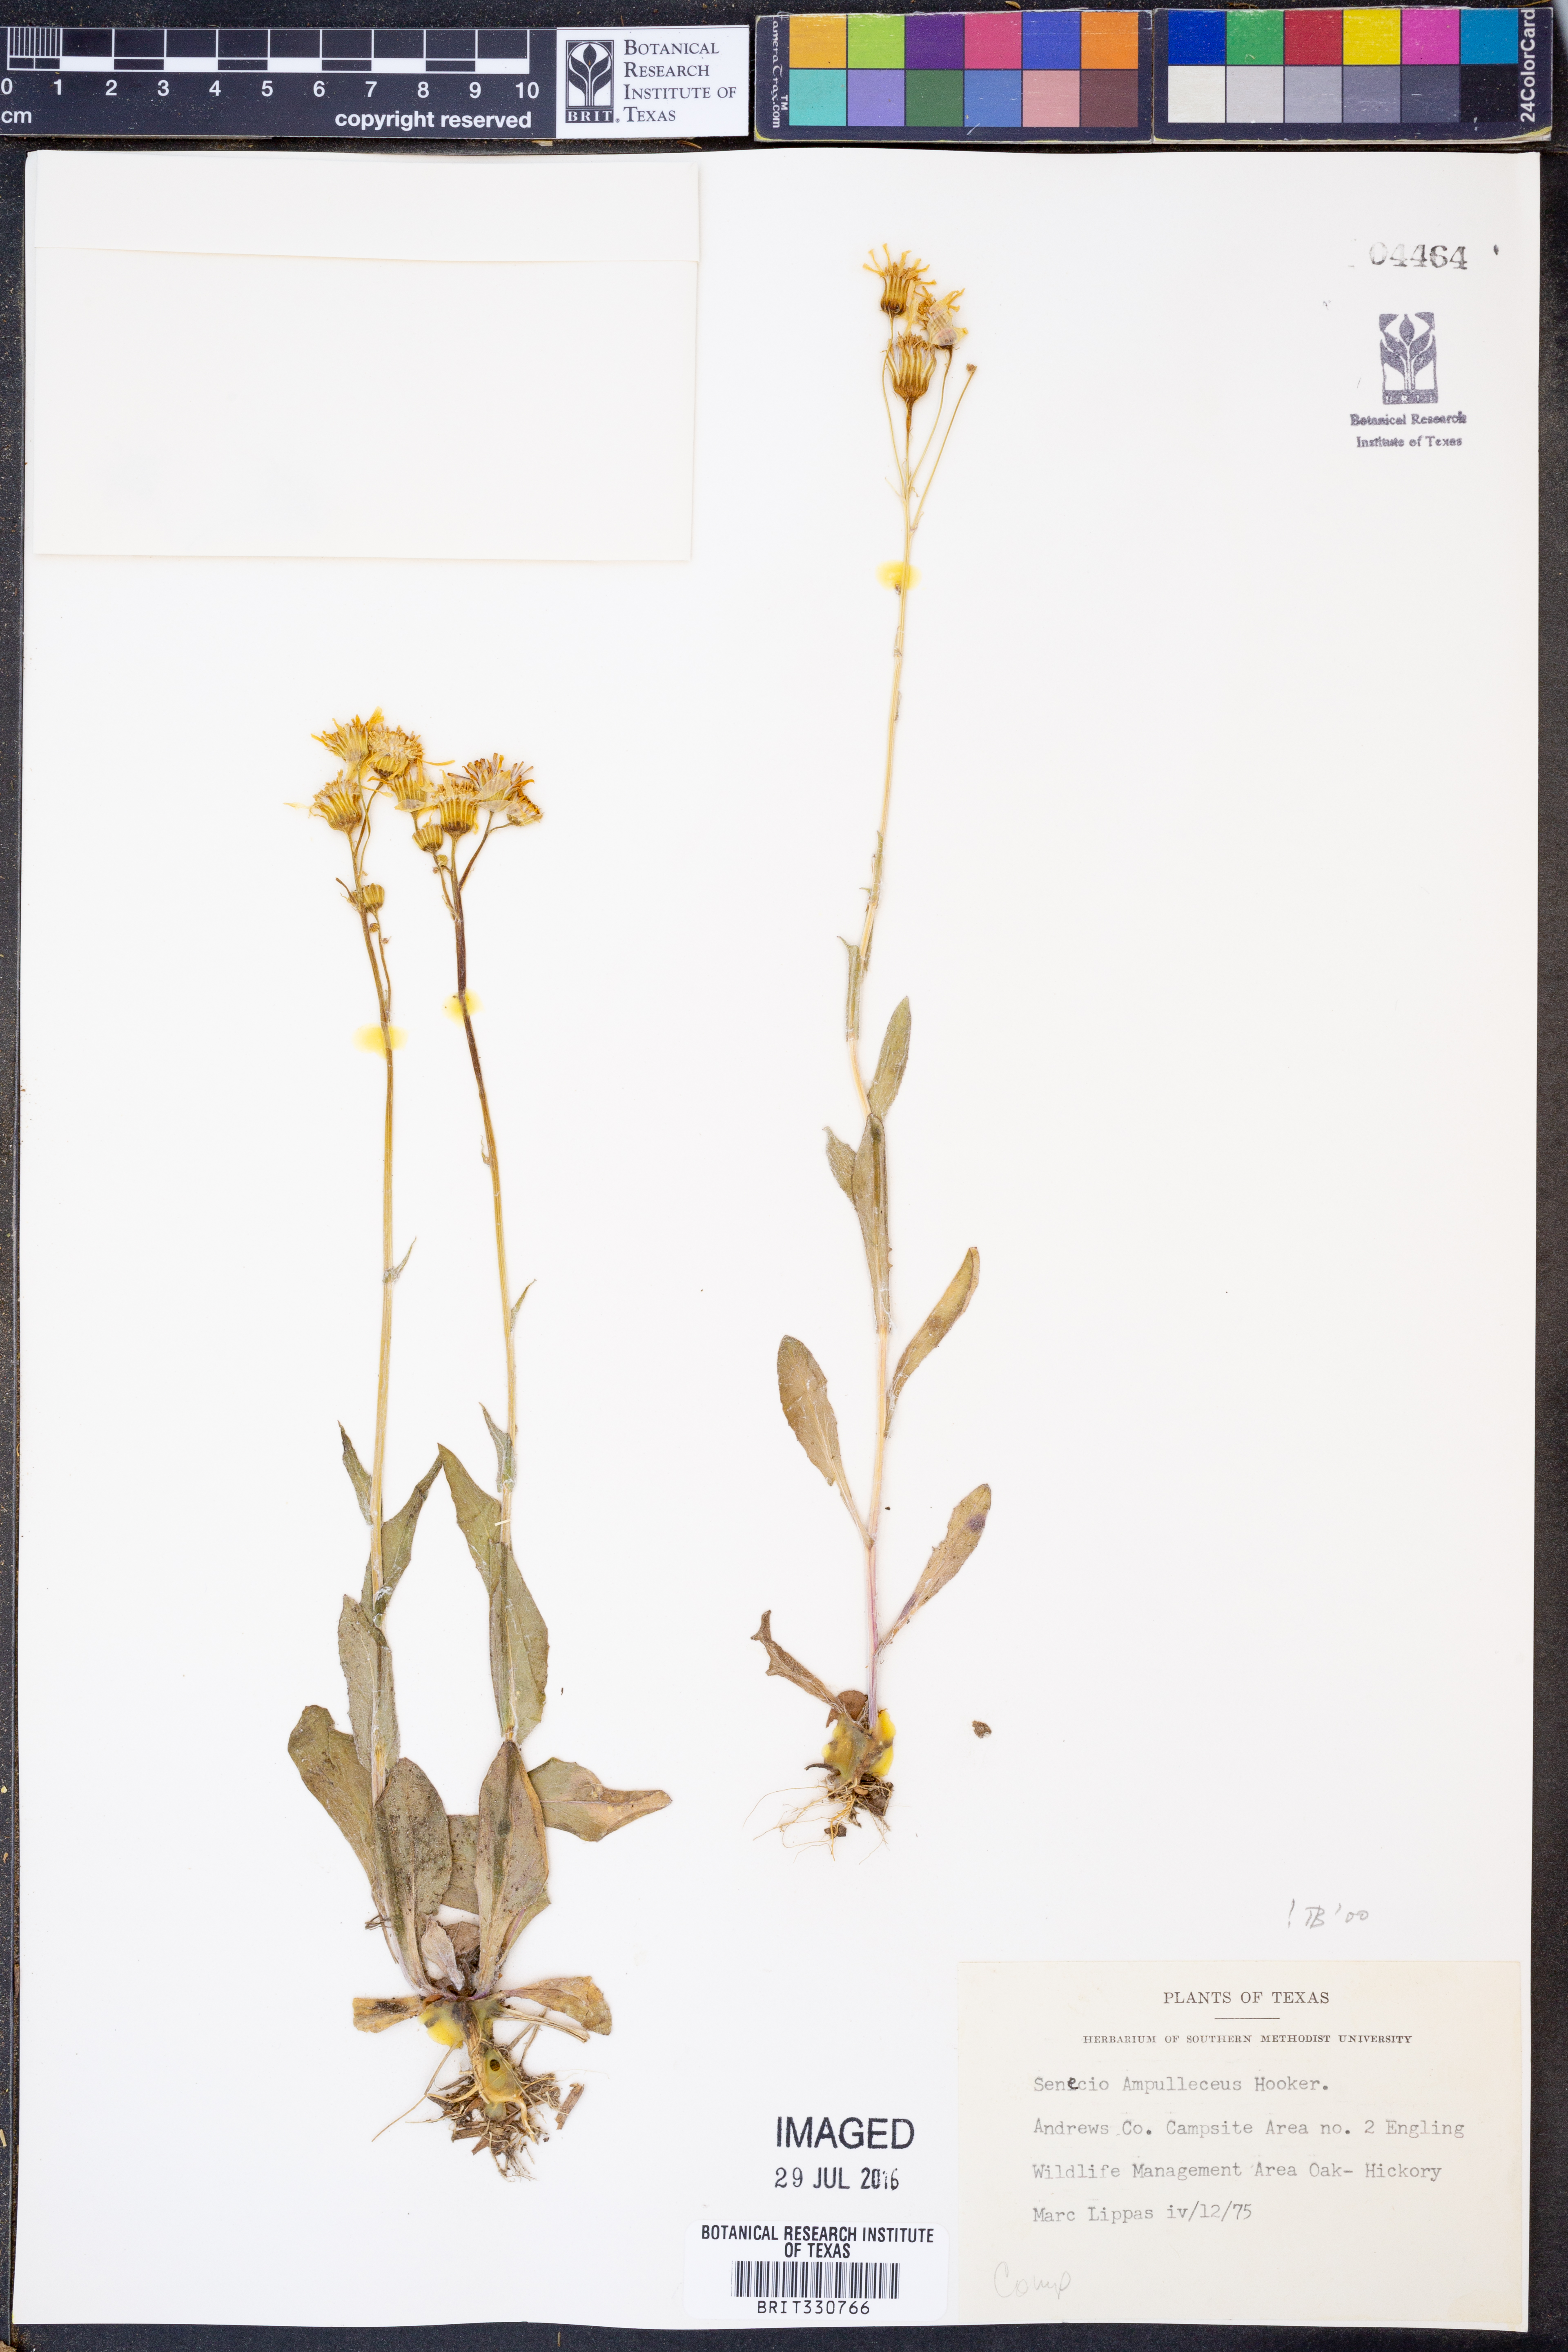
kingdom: Plantae
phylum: Tracheophyta
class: Magnoliopsida
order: Asterales
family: Asteraceae
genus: Senecio
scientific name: Senecio ampullaceus
